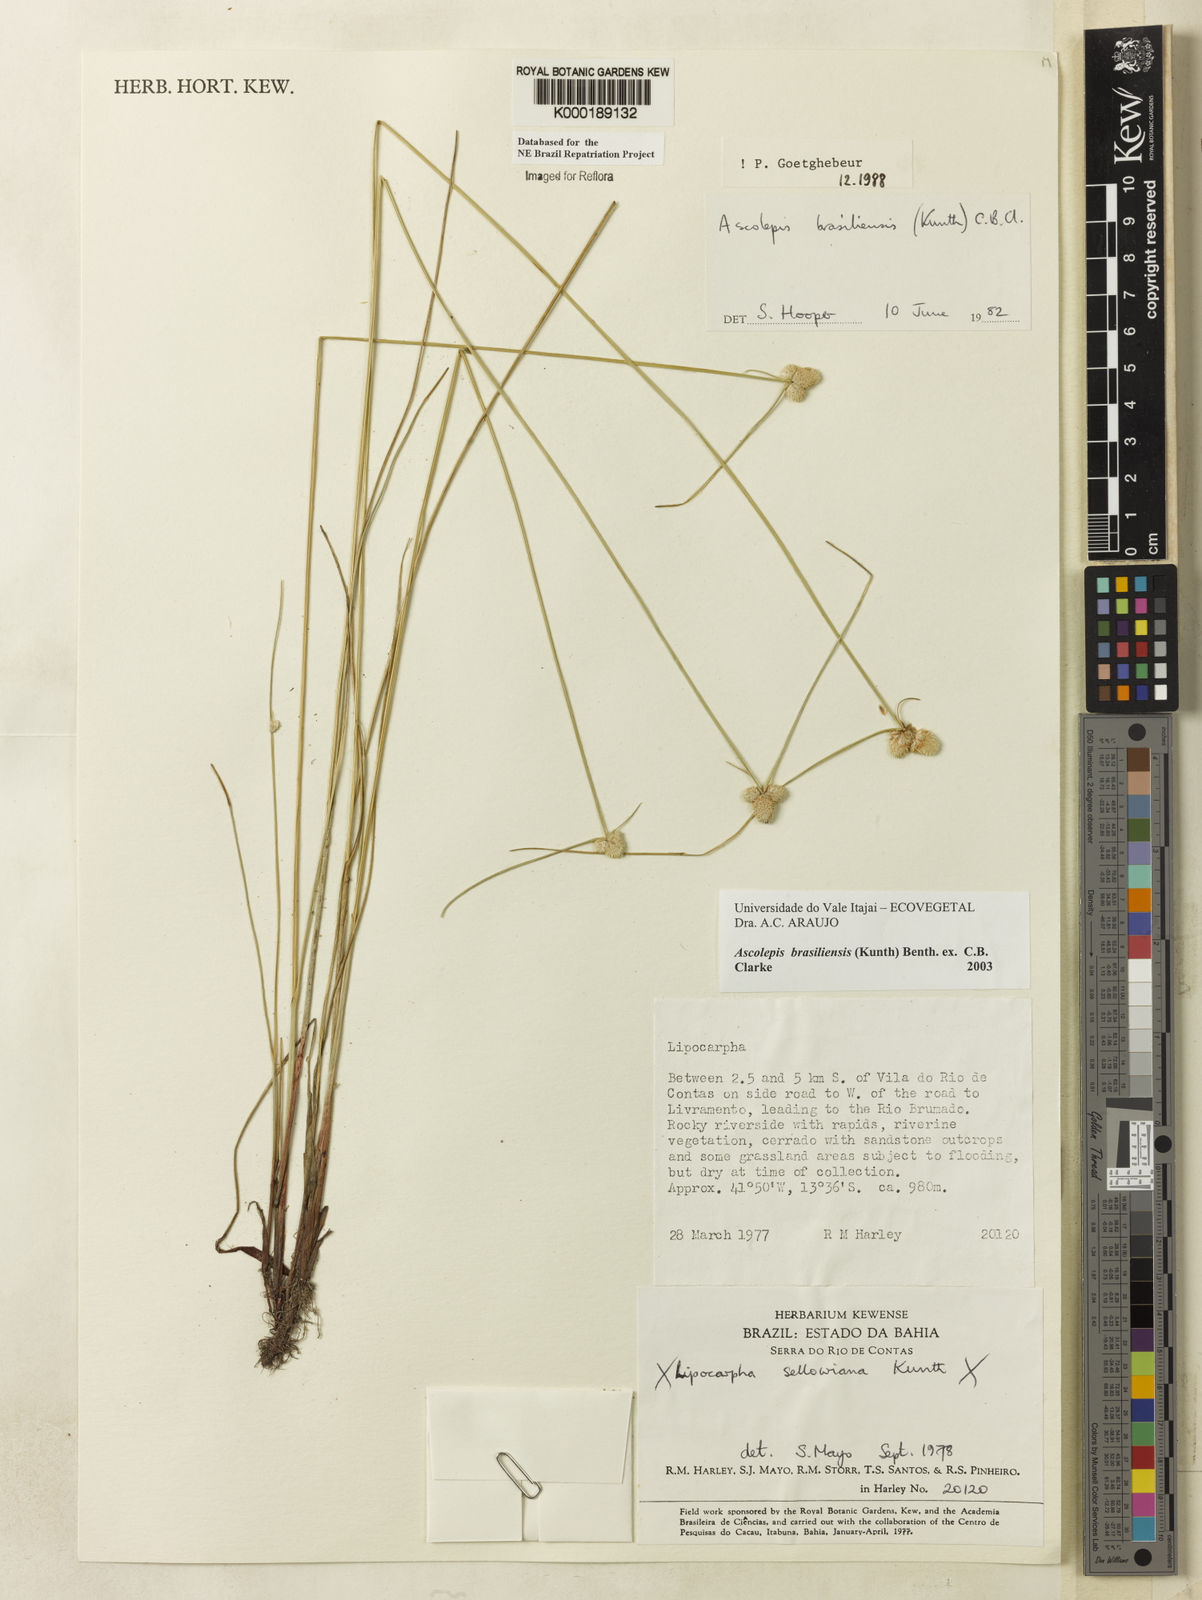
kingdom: Plantae
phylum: Tracheophyta
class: Liliopsida
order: Poales
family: Cyperaceae
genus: Cyperus
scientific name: Cyperus brasiliensis
